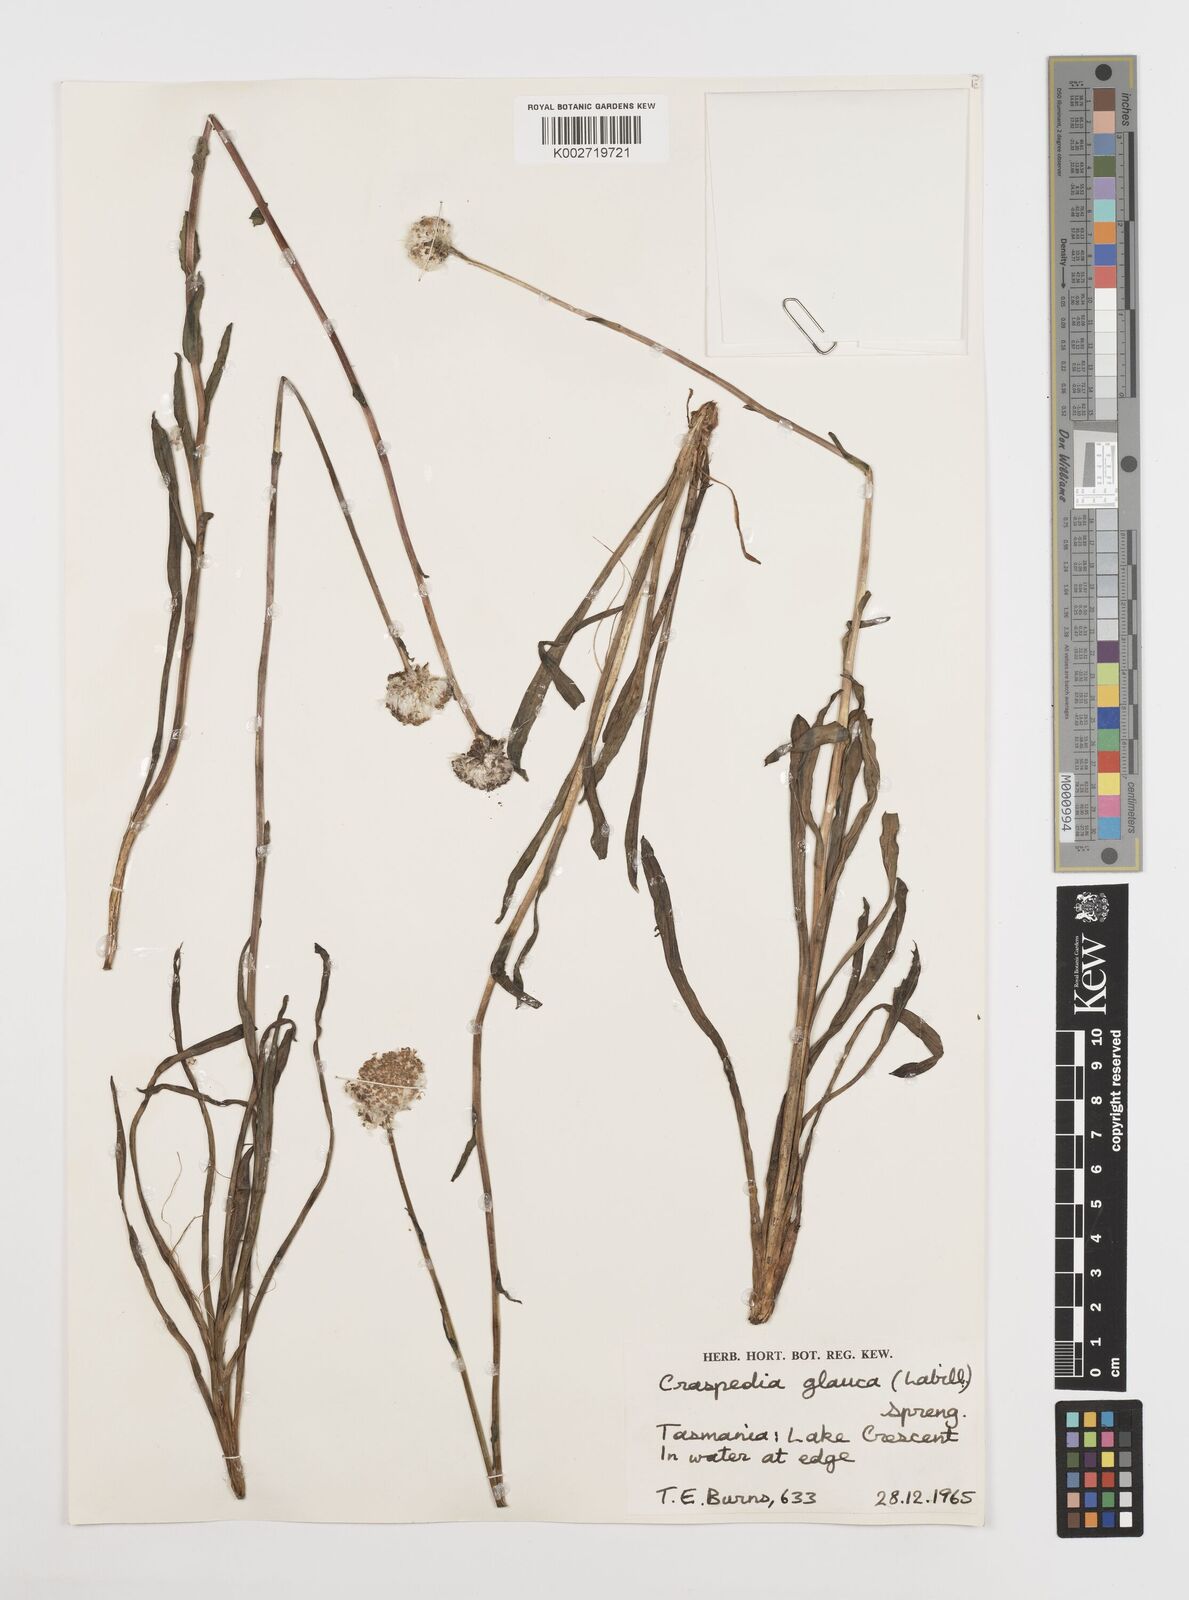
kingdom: Plantae
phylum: Tracheophyta
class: Magnoliopsida
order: Asterales
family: Asteraceae
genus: Craspedia
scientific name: Craspedia glauca
